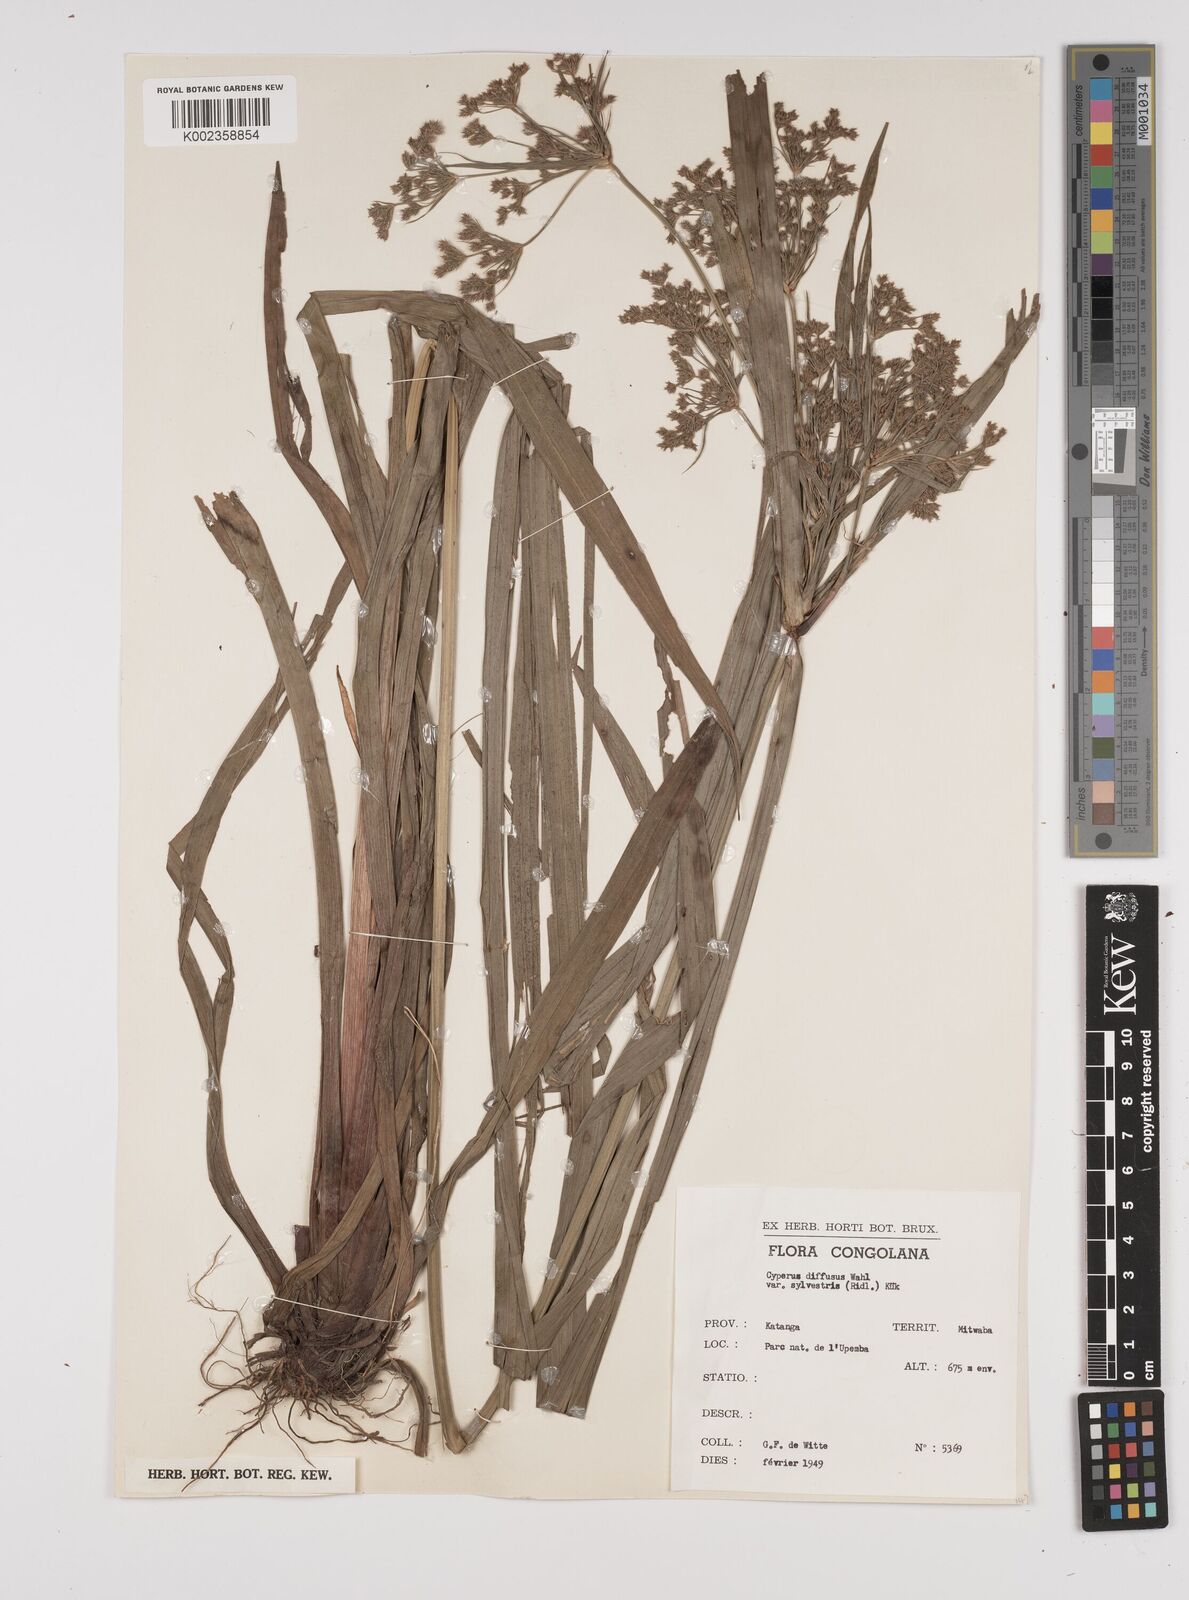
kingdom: Plantae
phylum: Tracheophyta
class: Liliopsida
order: Poales
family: Cyperaceae
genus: Cyperus
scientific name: Cyperus glaucophyllus
